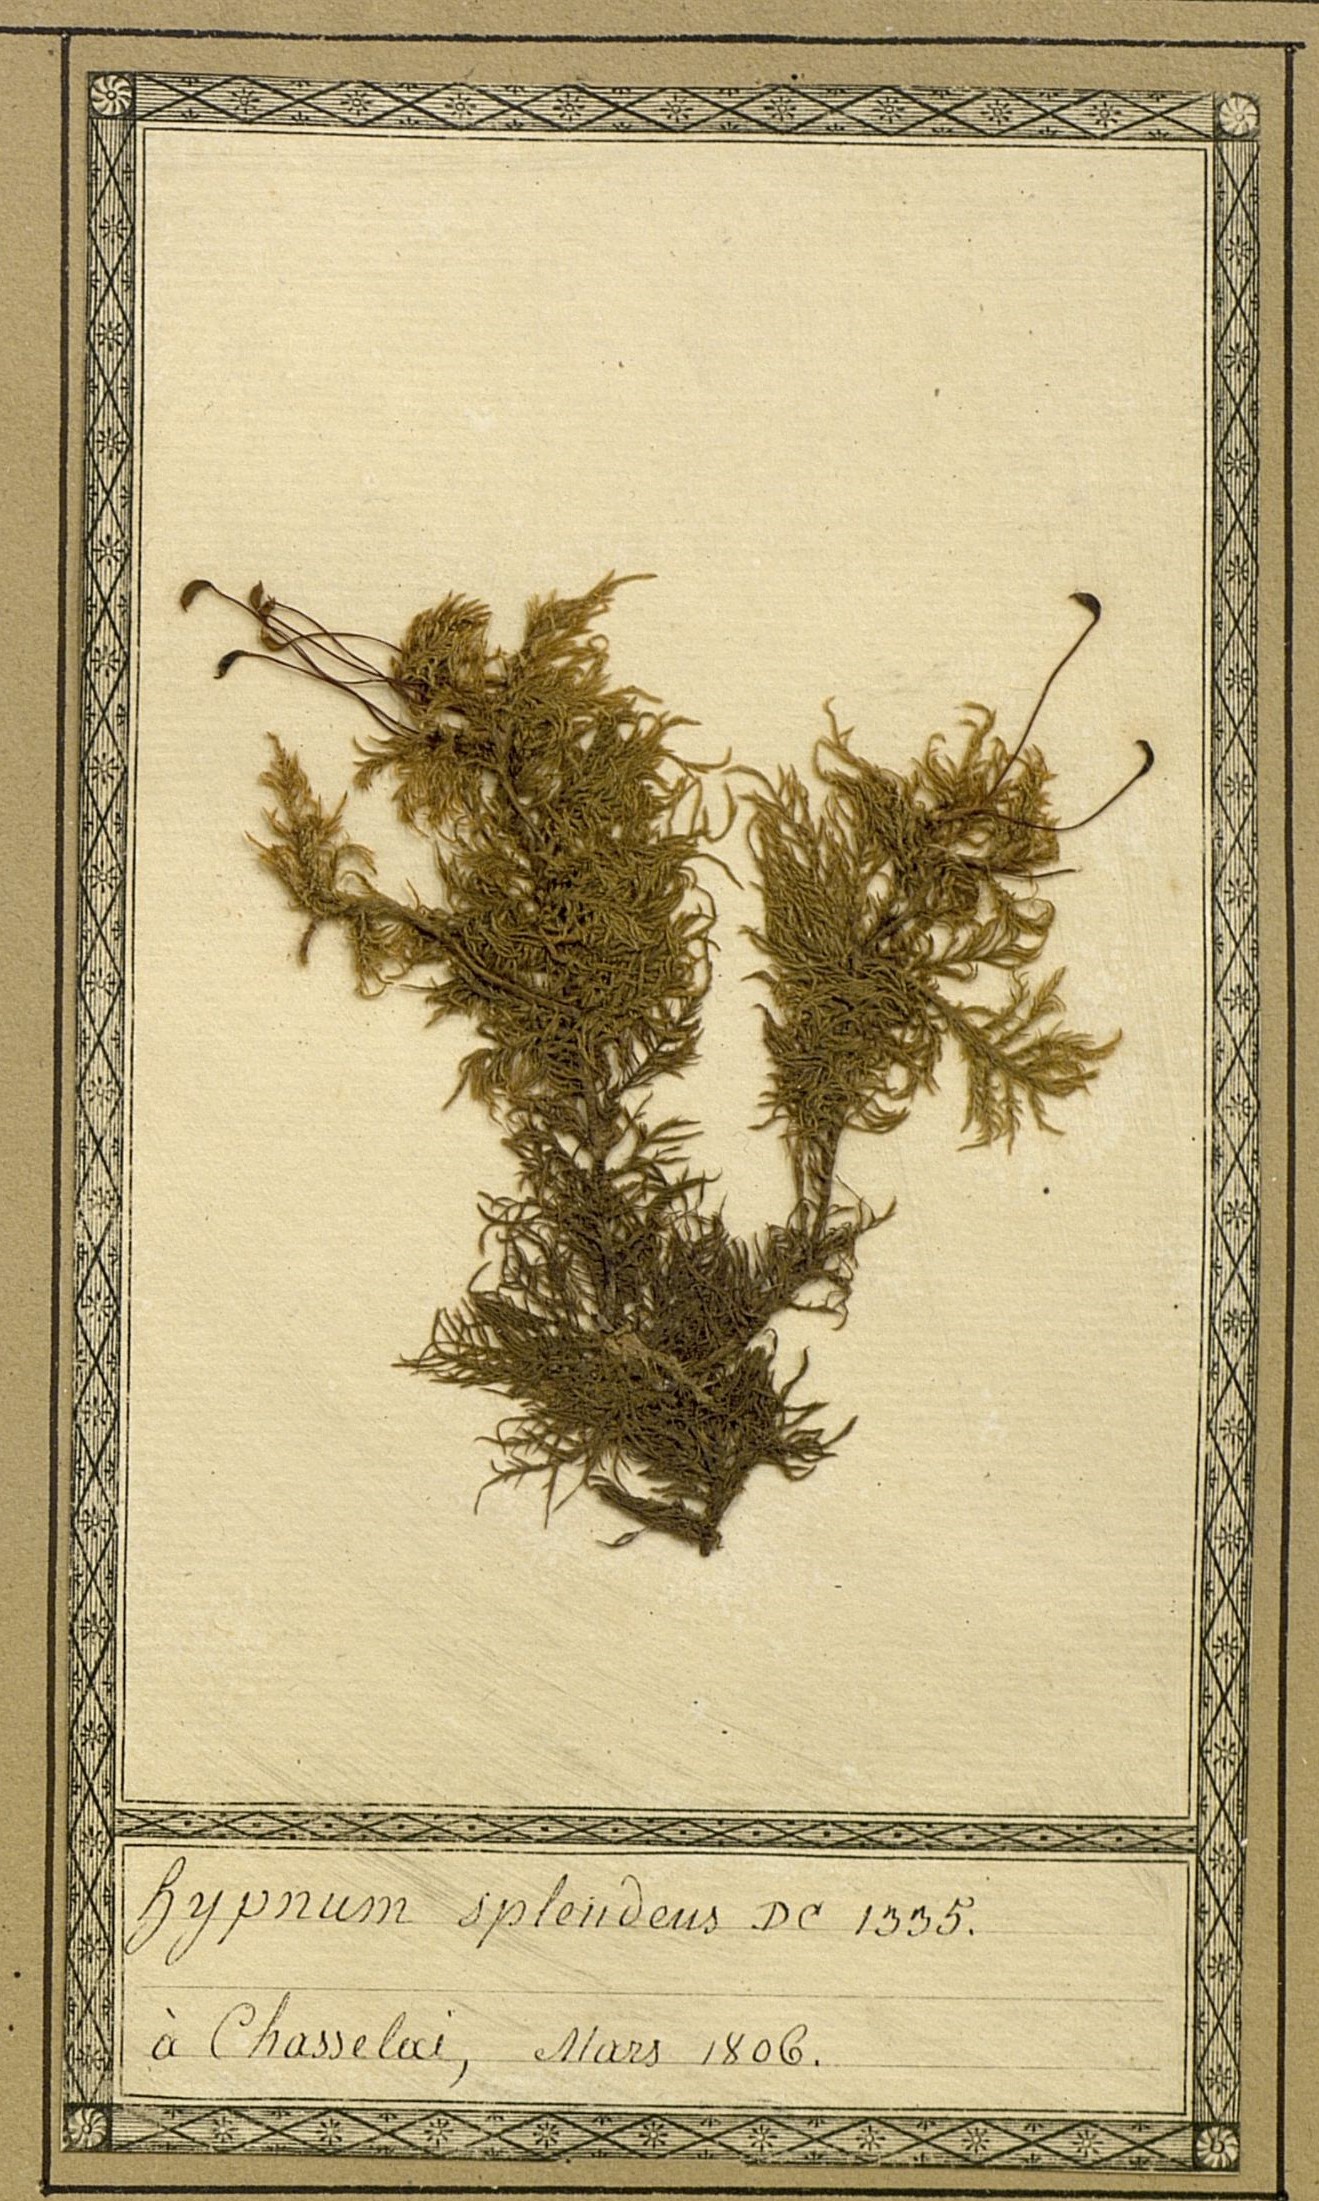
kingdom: Plantae
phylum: Bryophyta
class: Bryopsida
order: Hypnales
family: Hylocomiaceae
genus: Hylocomium
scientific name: Hylocomium splendens
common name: Stairstep moss
